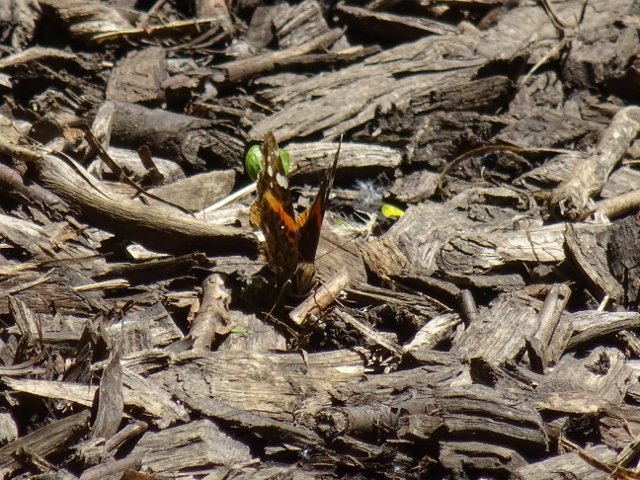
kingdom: Animalia
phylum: Arthropoda
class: Insecta
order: Lepidoptera
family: Nymphalidae
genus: Vanessa
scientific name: Vanessa atalanta
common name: Red Admiral
